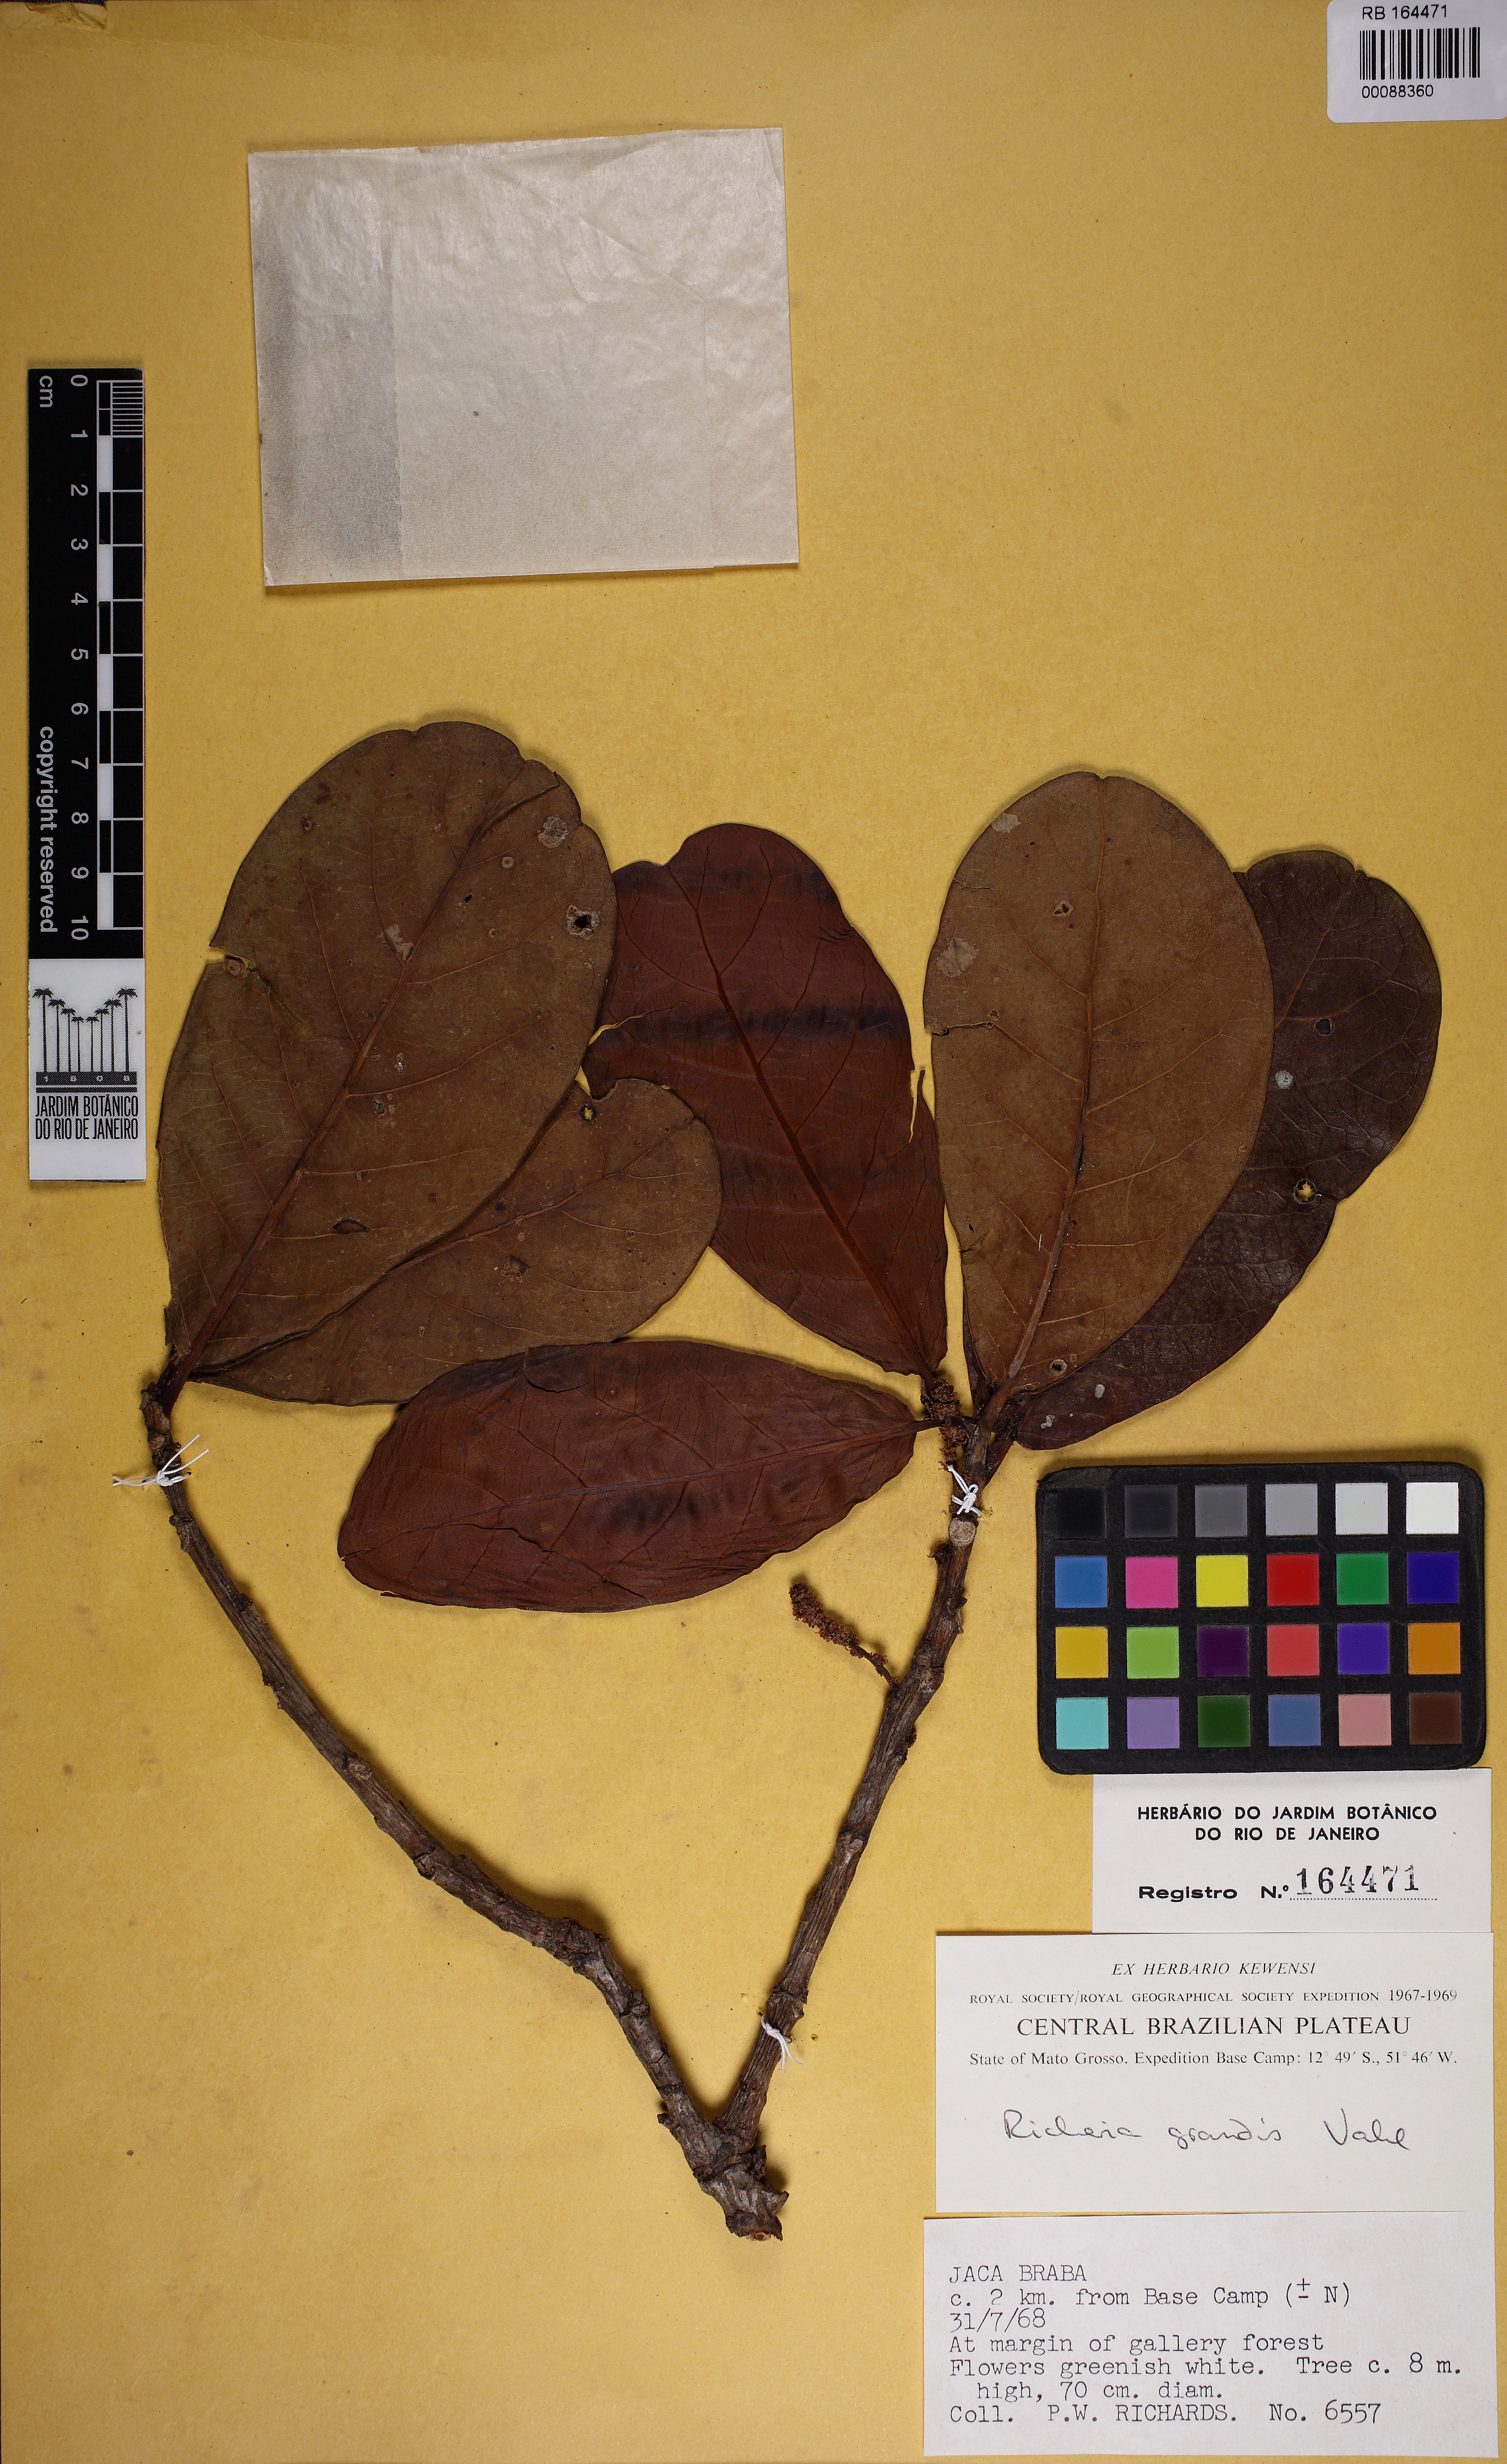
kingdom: Plantae
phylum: Tracheophyta
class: Magnoliopsida
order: Malpighiales
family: Phyllanthaceae
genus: Richeria
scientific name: Richeria grandis
